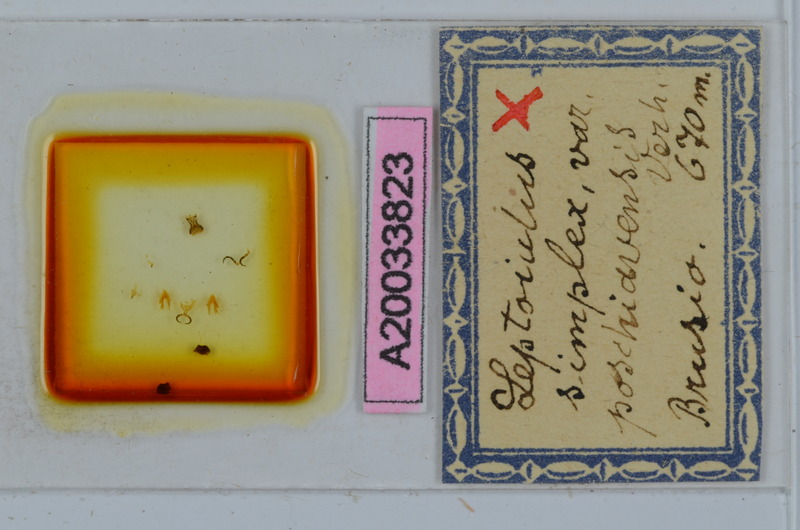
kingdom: Animalia
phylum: Arthropoda
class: Diplopoda
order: Julida
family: Julidae
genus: Leptoiulus
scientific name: Leptoiulus simplex
